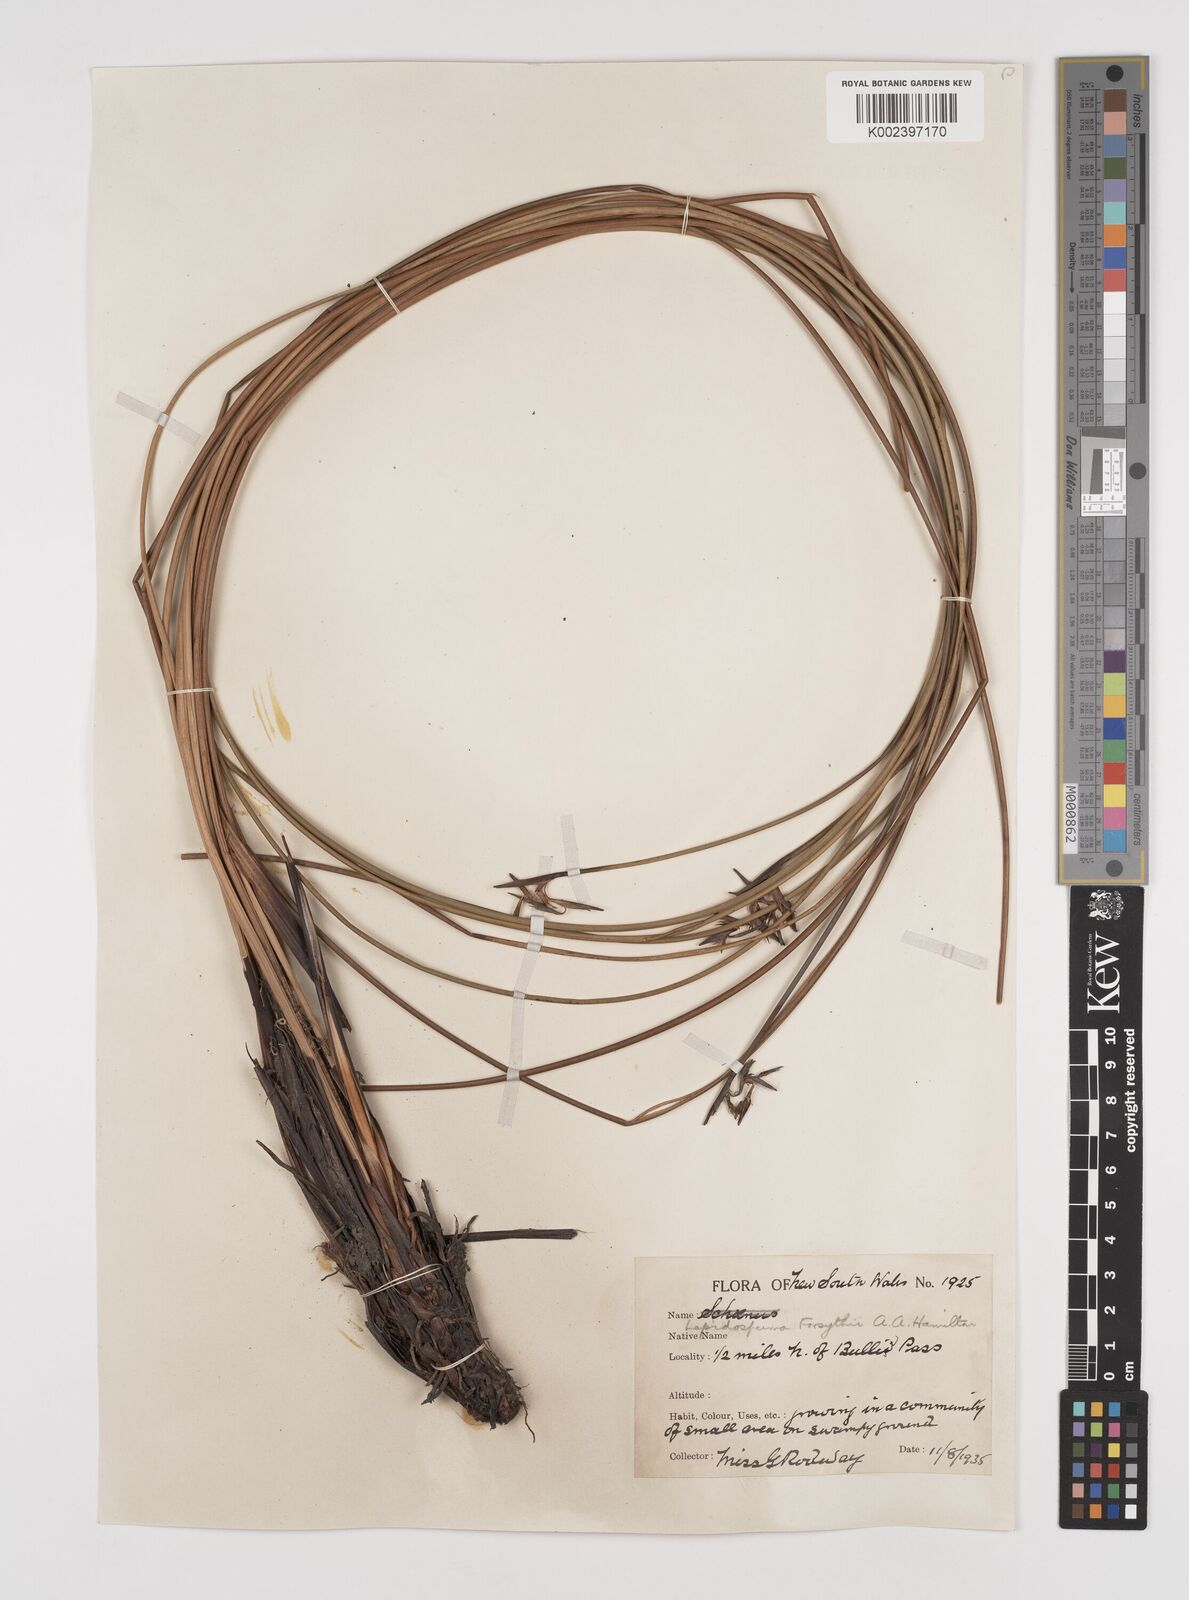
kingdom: Plantae
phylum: Tracheophyta
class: Liliopsida
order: Poales
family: Cyperaceae
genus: Lepidosperma
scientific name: Lepidosperma forsythii
